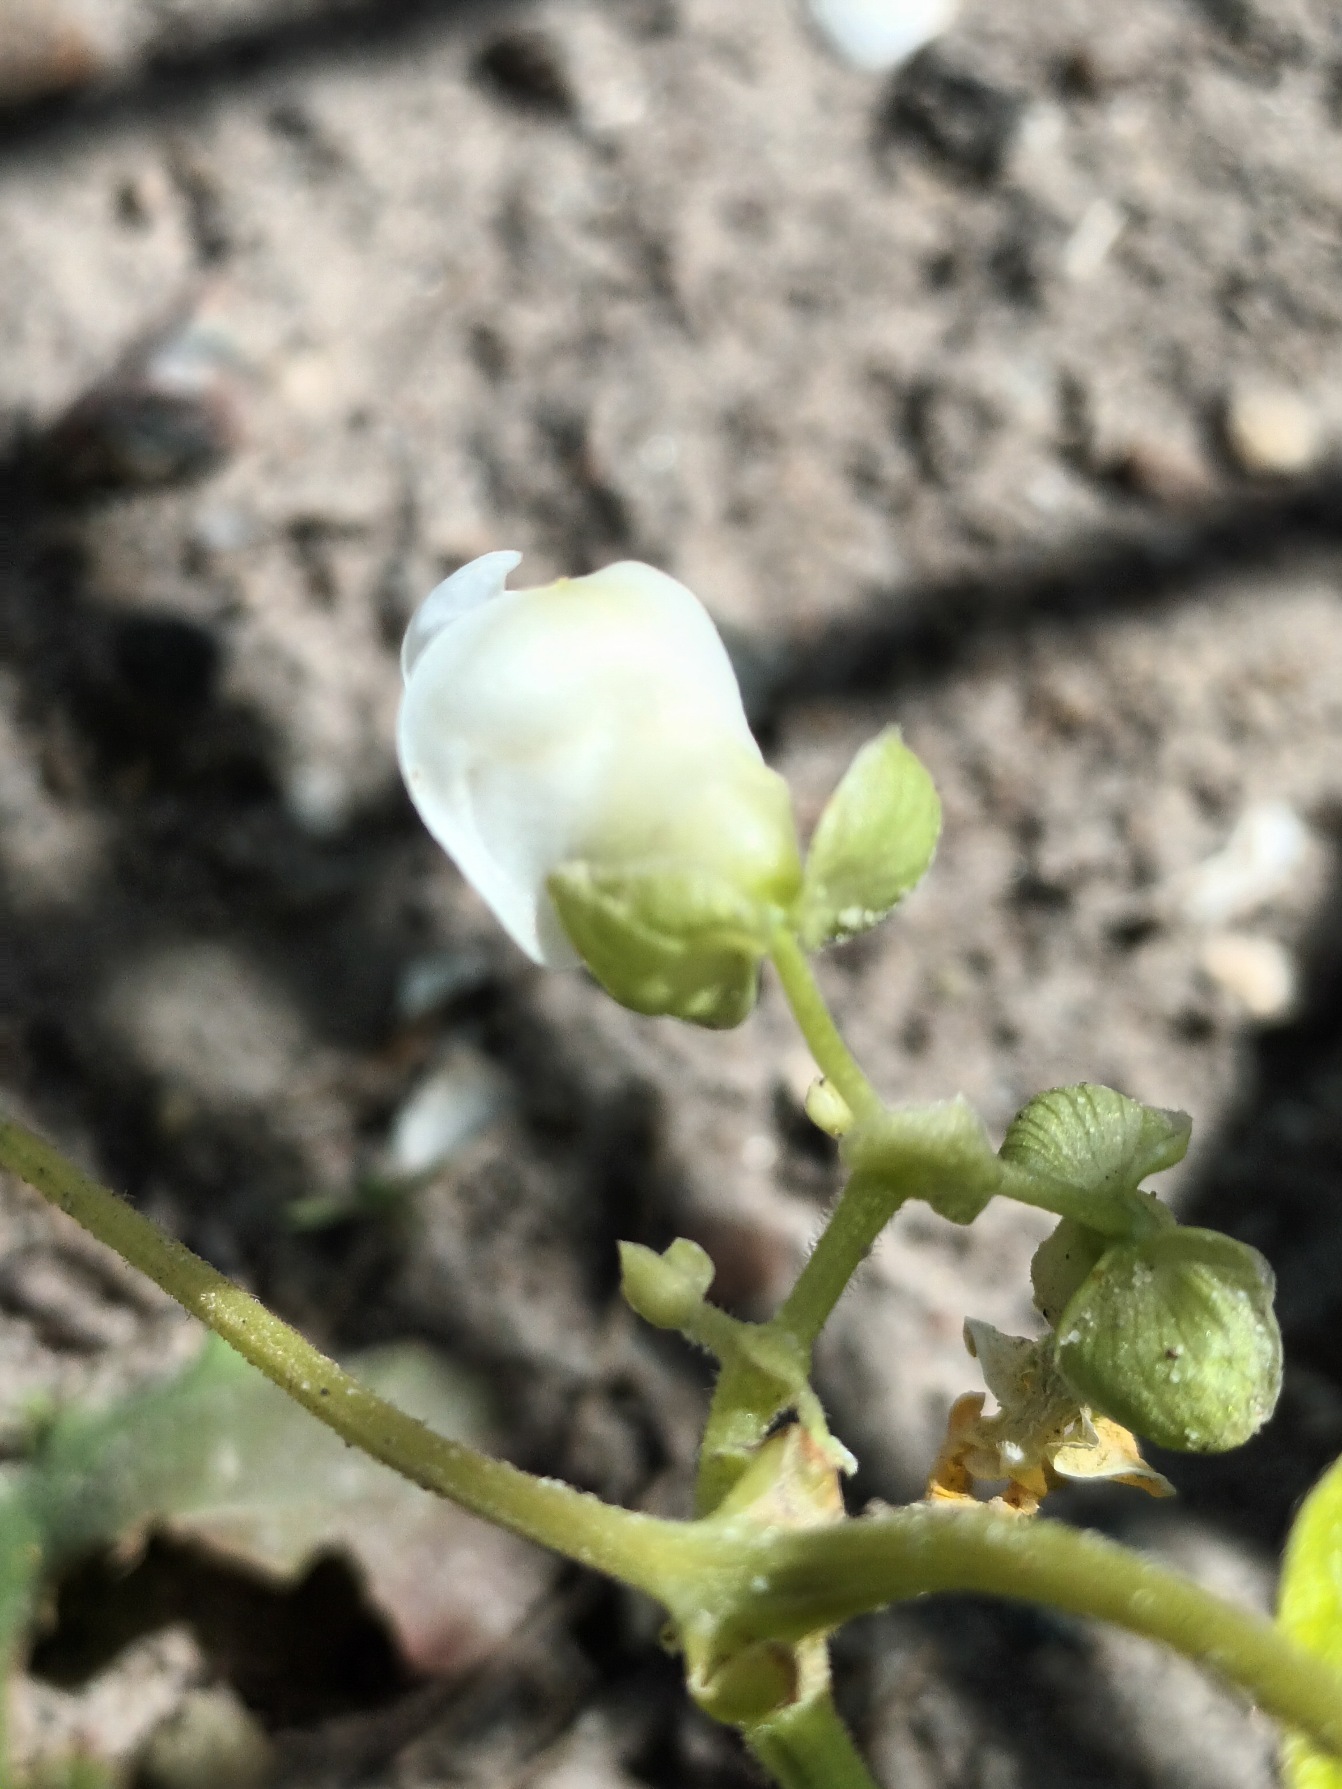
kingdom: Plantae
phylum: Tracheophyta
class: Magnoliopsida
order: Fabales
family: Fabaceae
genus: Phaseolus
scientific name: Phaseolus vulgaris
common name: Have-bønne
